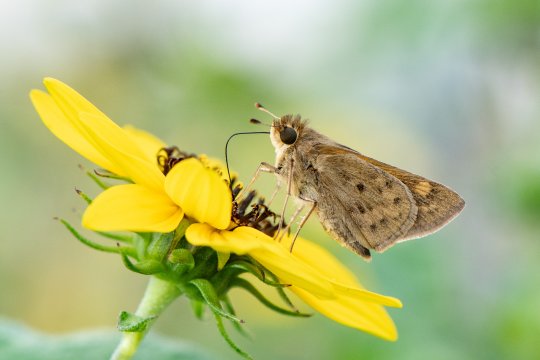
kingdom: Animalia
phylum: Arthropoda
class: Insecta
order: Lepidoptera
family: Hesperiidae
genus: Hylephila
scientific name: Hylephila phyleus
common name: Fiery Skipper
